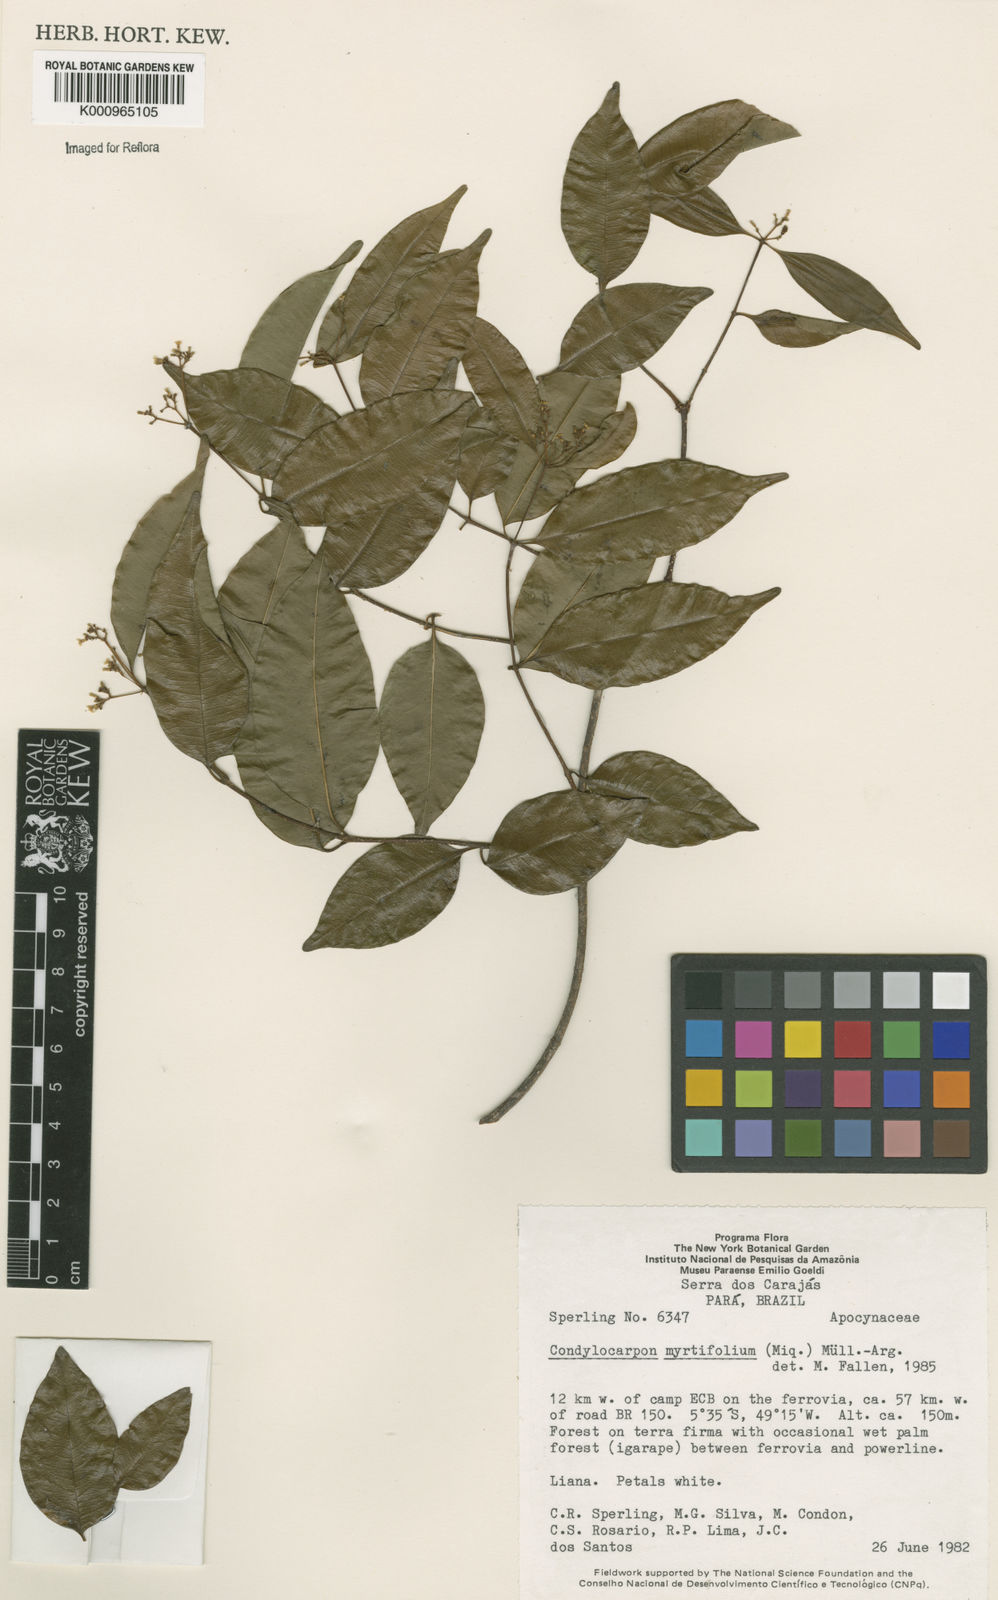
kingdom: Plantae
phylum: Tracheophyta
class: Magnoliopsida
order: Gentianales
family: Apocynaceae
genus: Condylocarpon
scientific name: Condylocarpon
